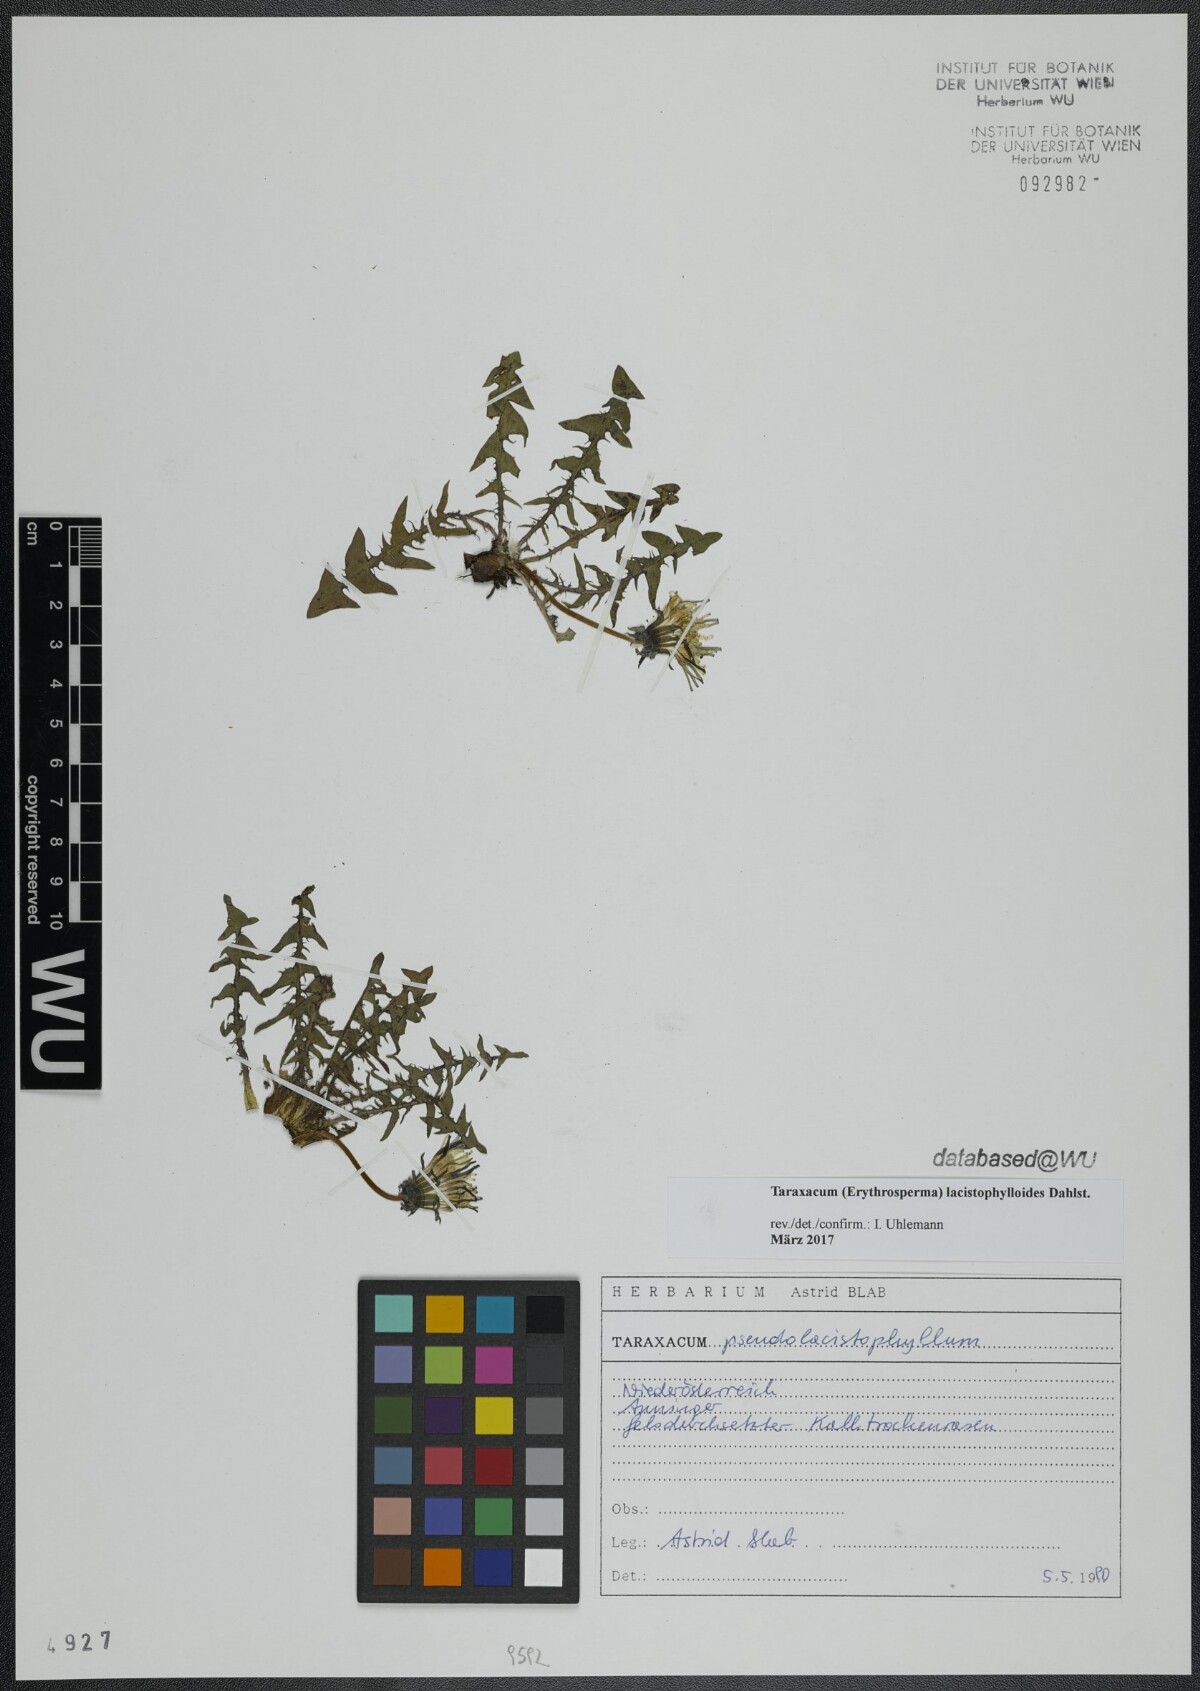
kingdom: Plantae
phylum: Tracheophyta
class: Magnoliopsida
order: Asterales
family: Asteraceae
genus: Taraxacum
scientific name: Taraxacum lacistophylloides
